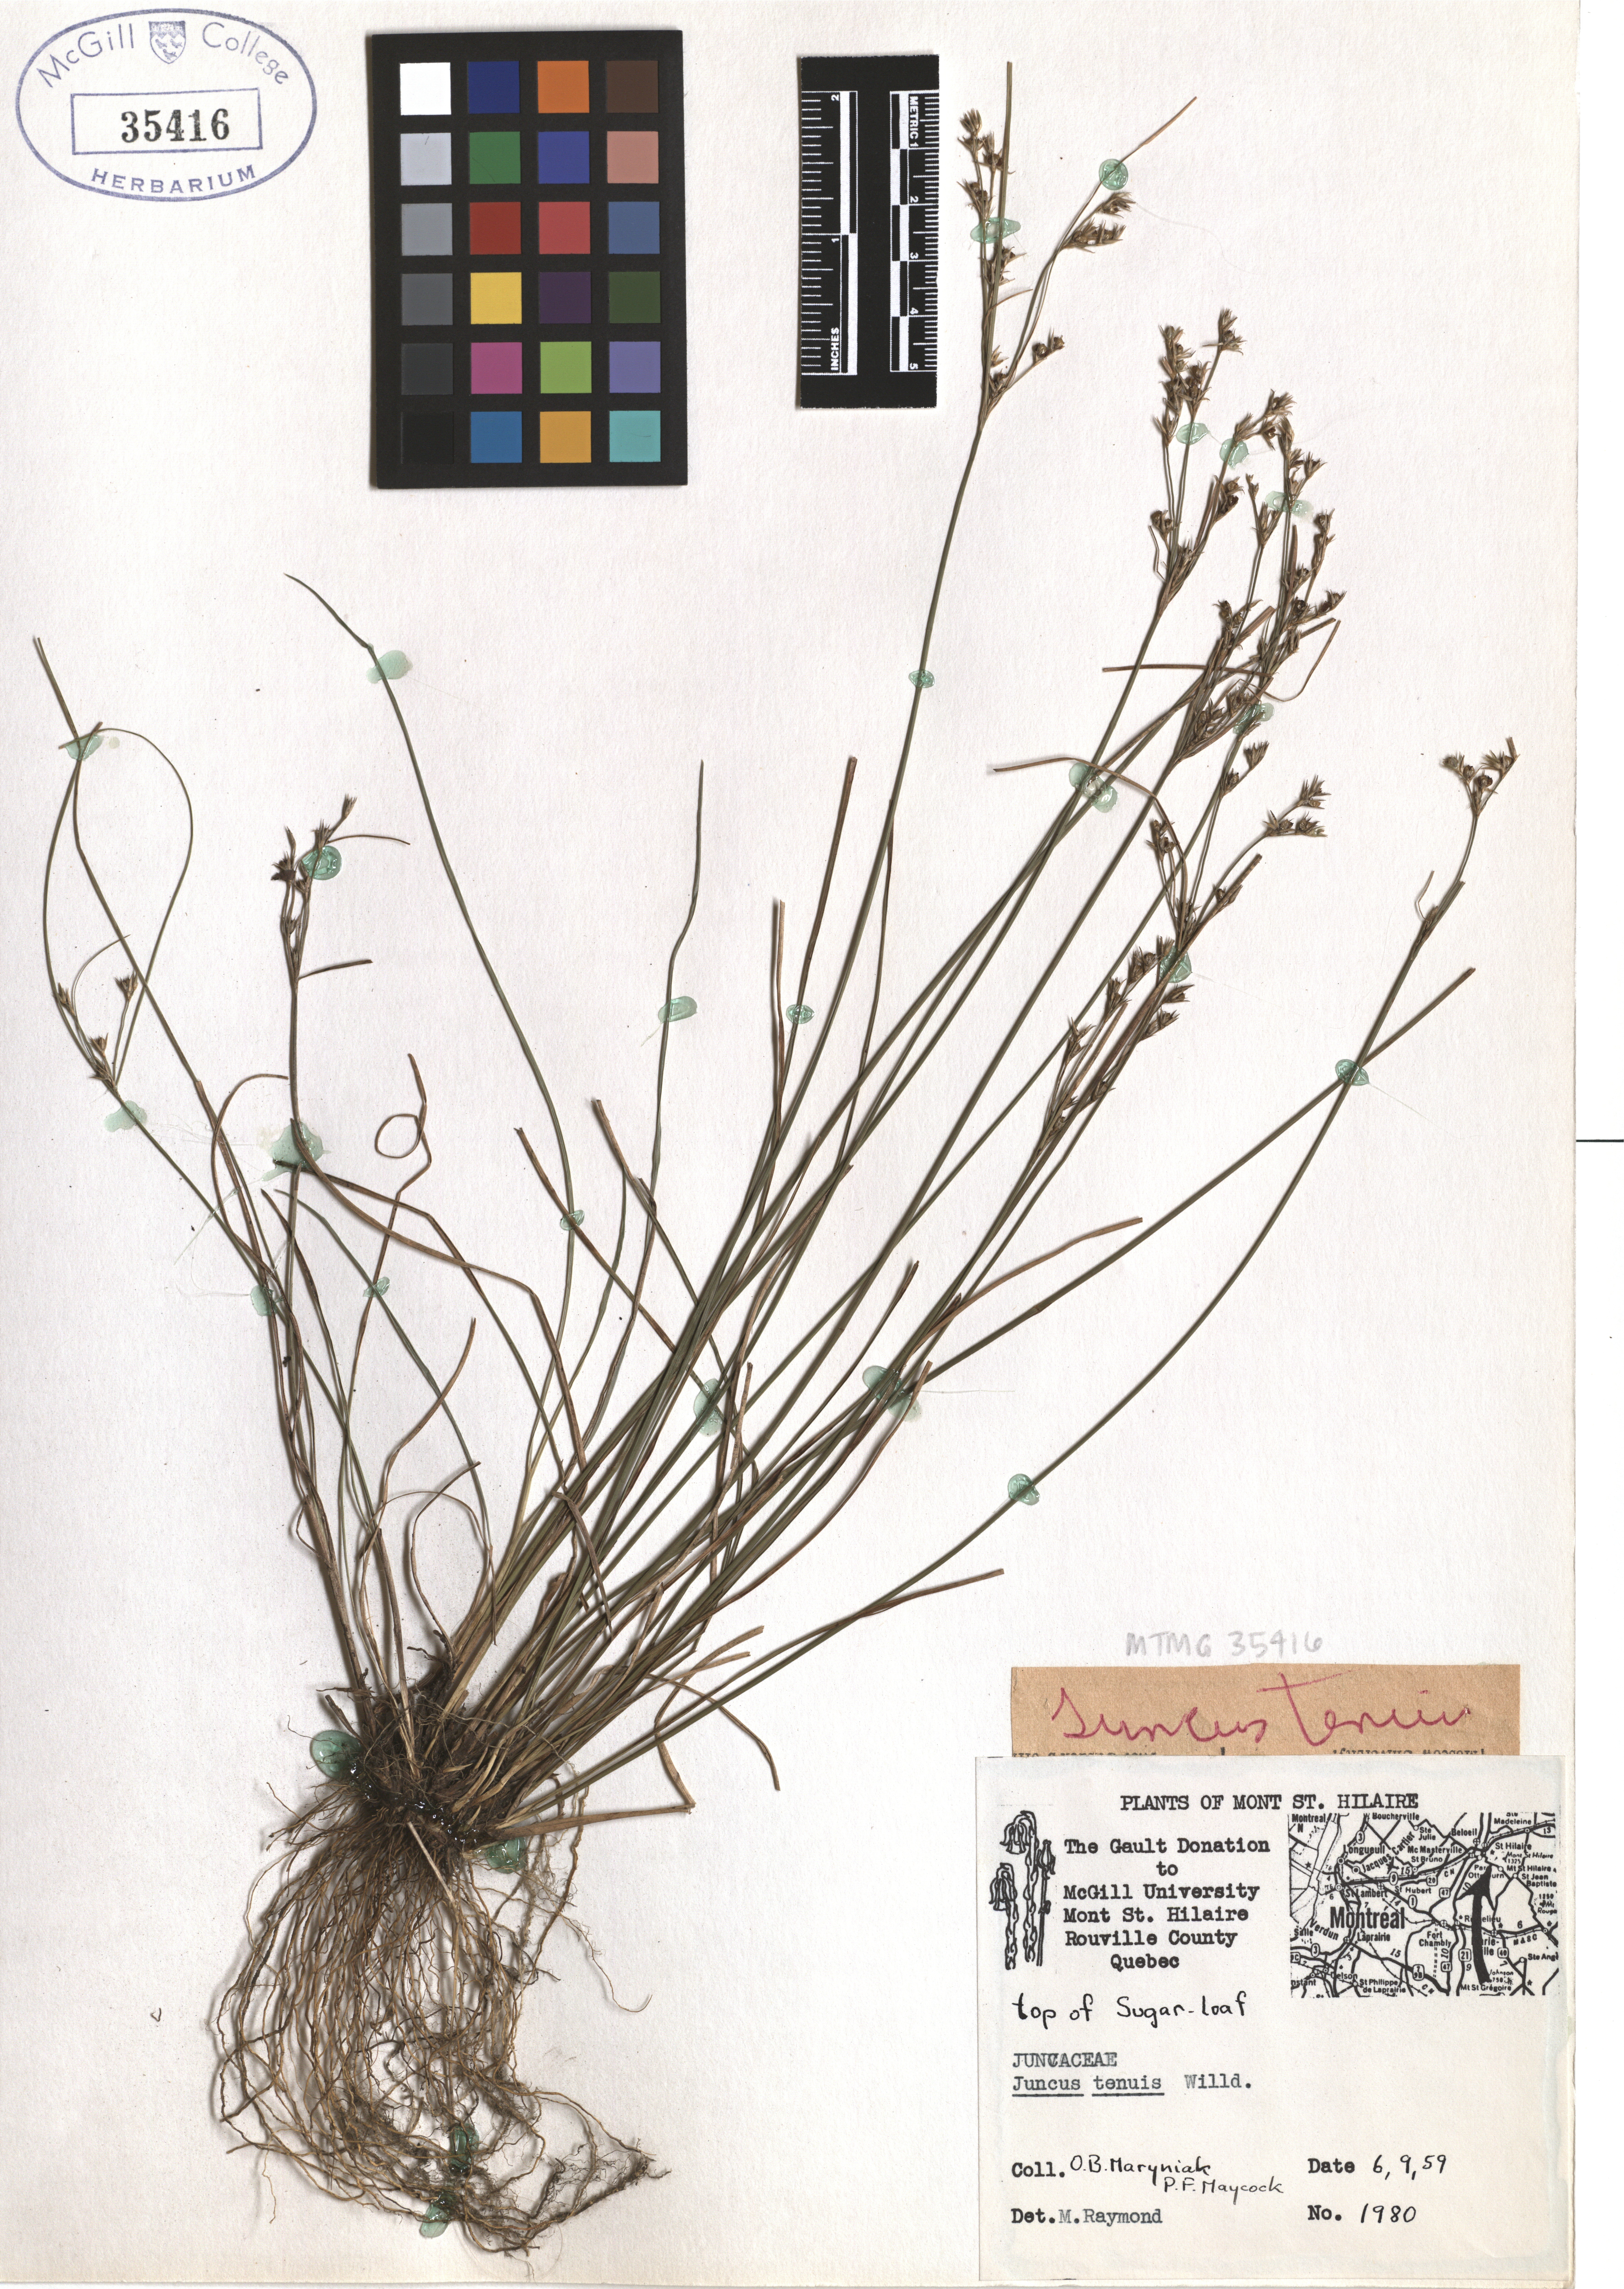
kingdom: Plantae
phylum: Tracheophyta
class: Liliopsida
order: Poales
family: Juncaceae
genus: Juncus
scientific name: Juncus tenuis
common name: Slender rush
